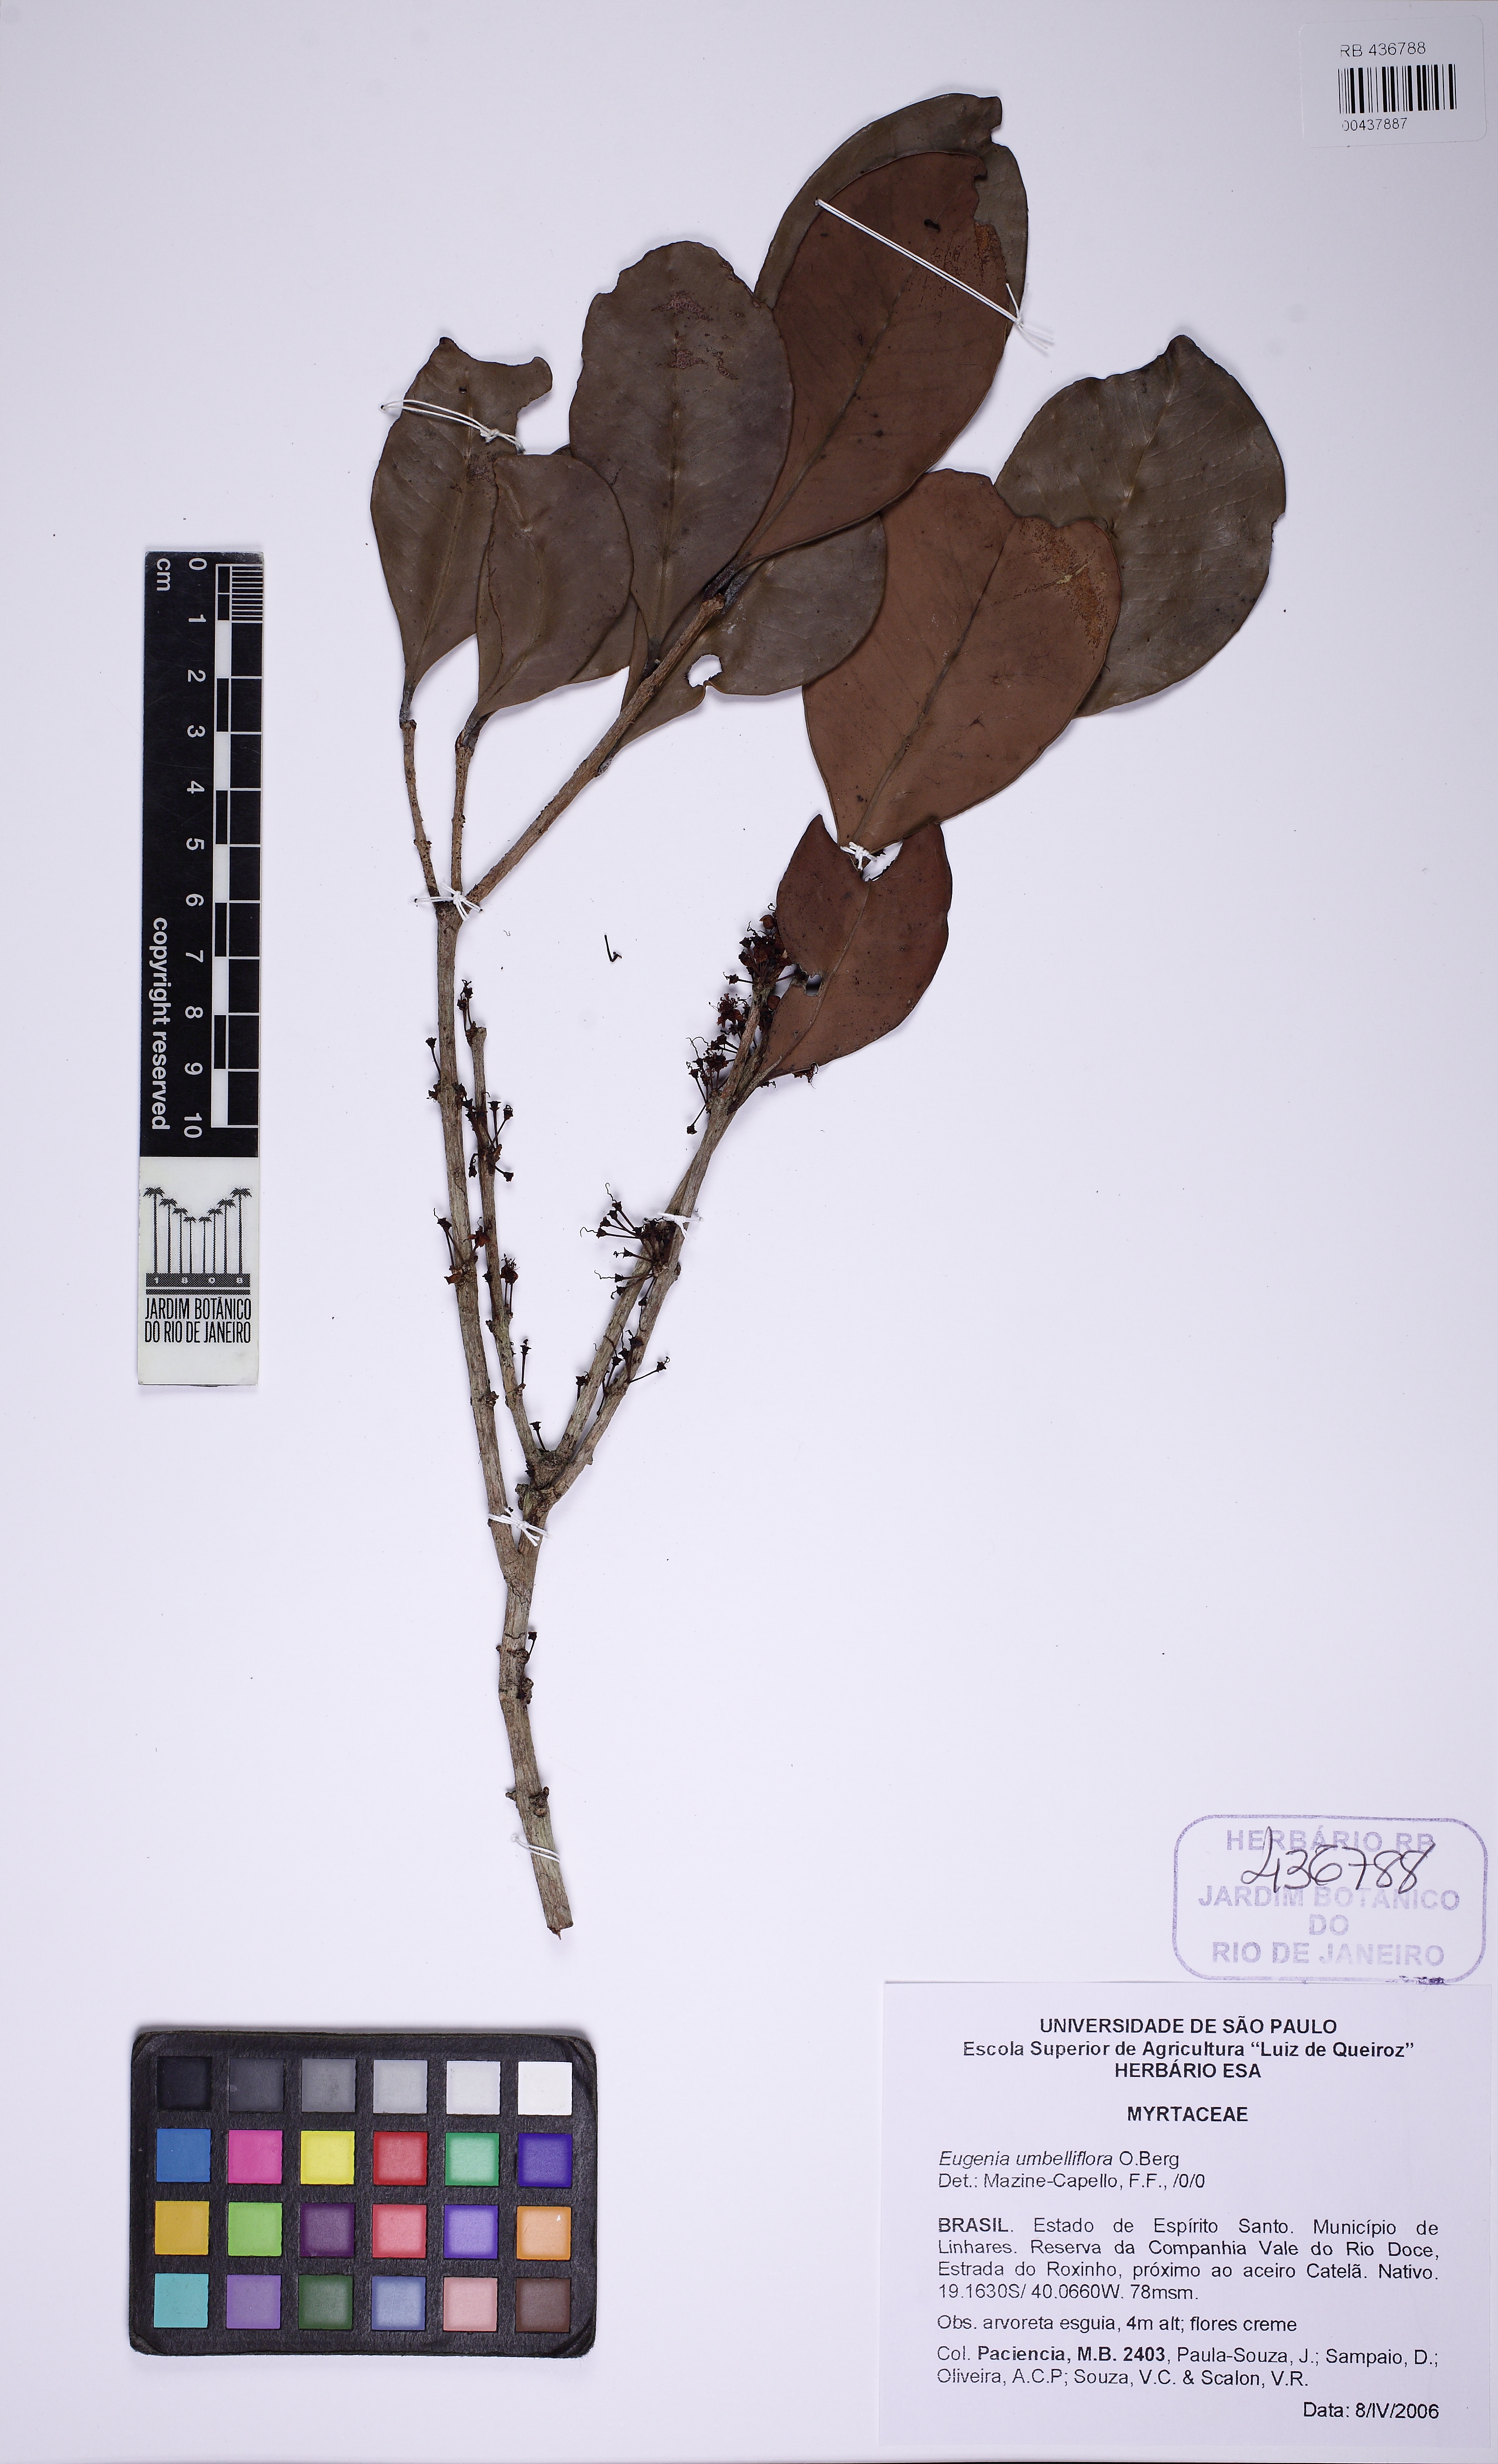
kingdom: Plantae
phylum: Tracheophyta
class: Magnoliopsida
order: Myrtales
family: Myrtaceae
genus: Eugenia
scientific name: Eugenia umbelliflora
